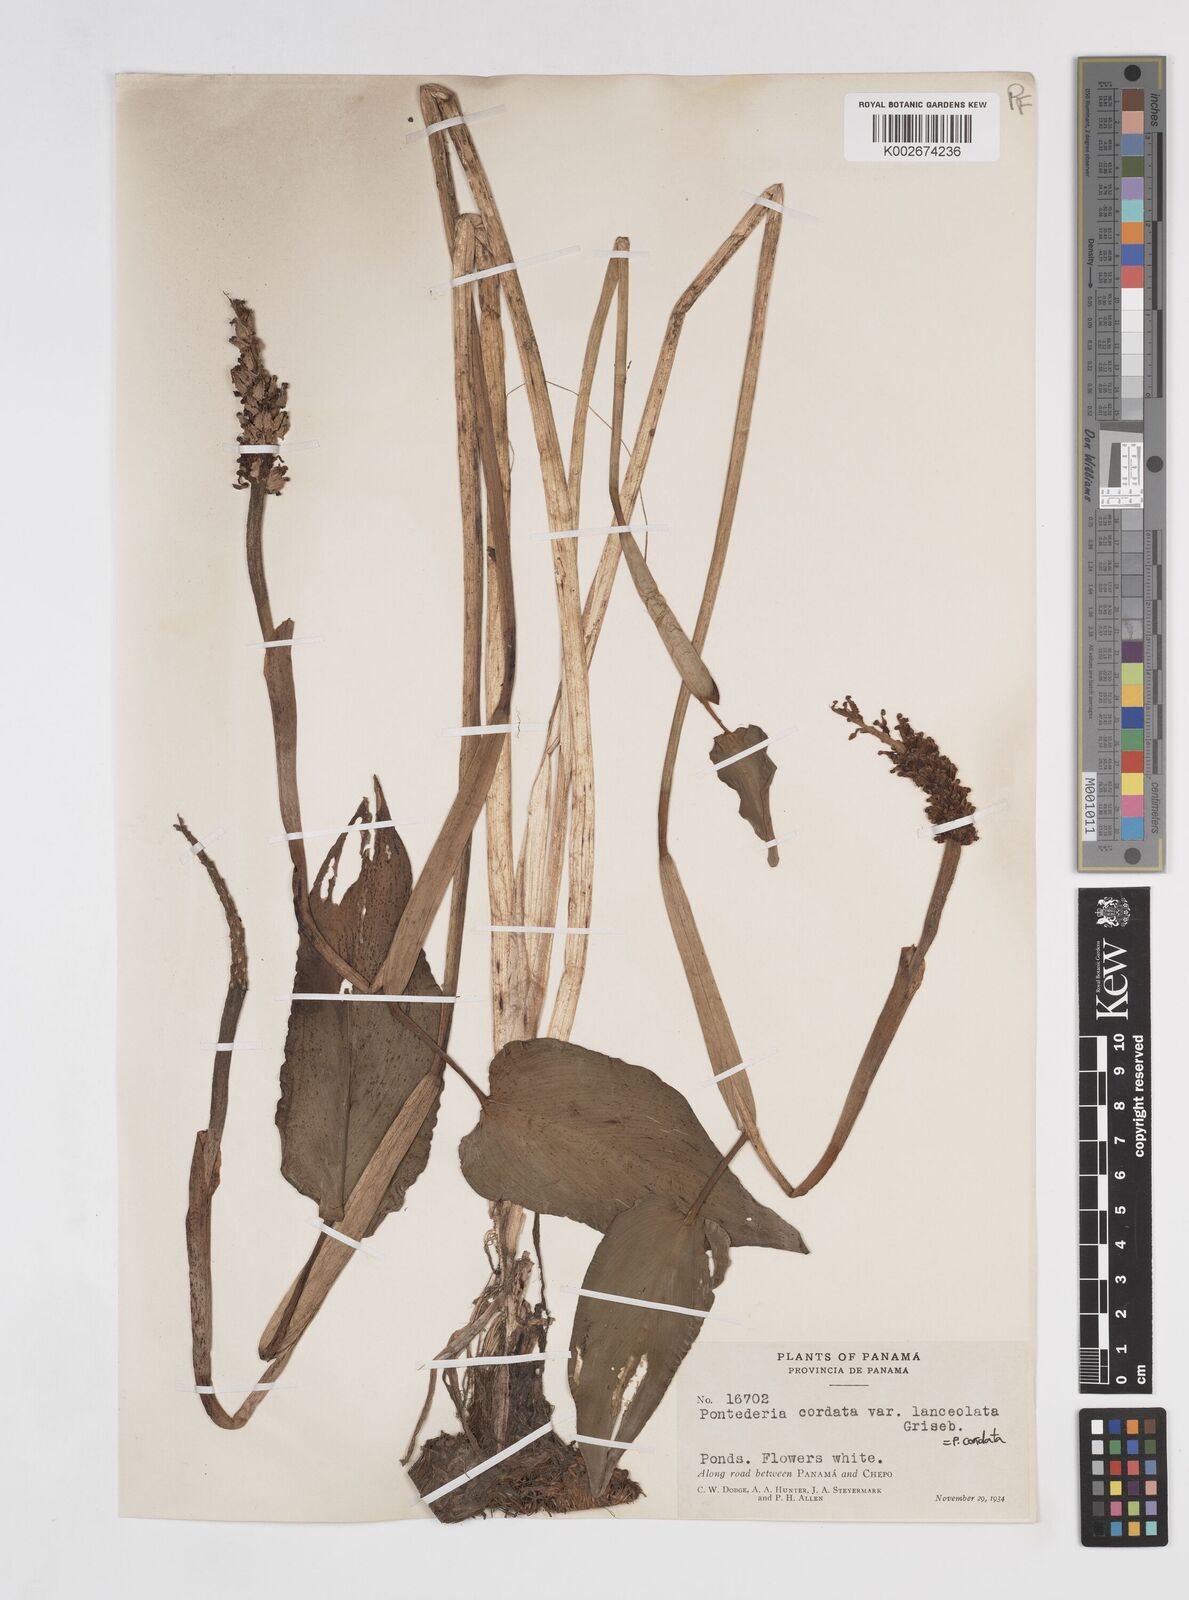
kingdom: Plantae
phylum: Tracheophyta
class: Liliopsida
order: Commelinales
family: Pontederiaceae
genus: Pontederia
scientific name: Pontederia cordata
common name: Pickerelweed
